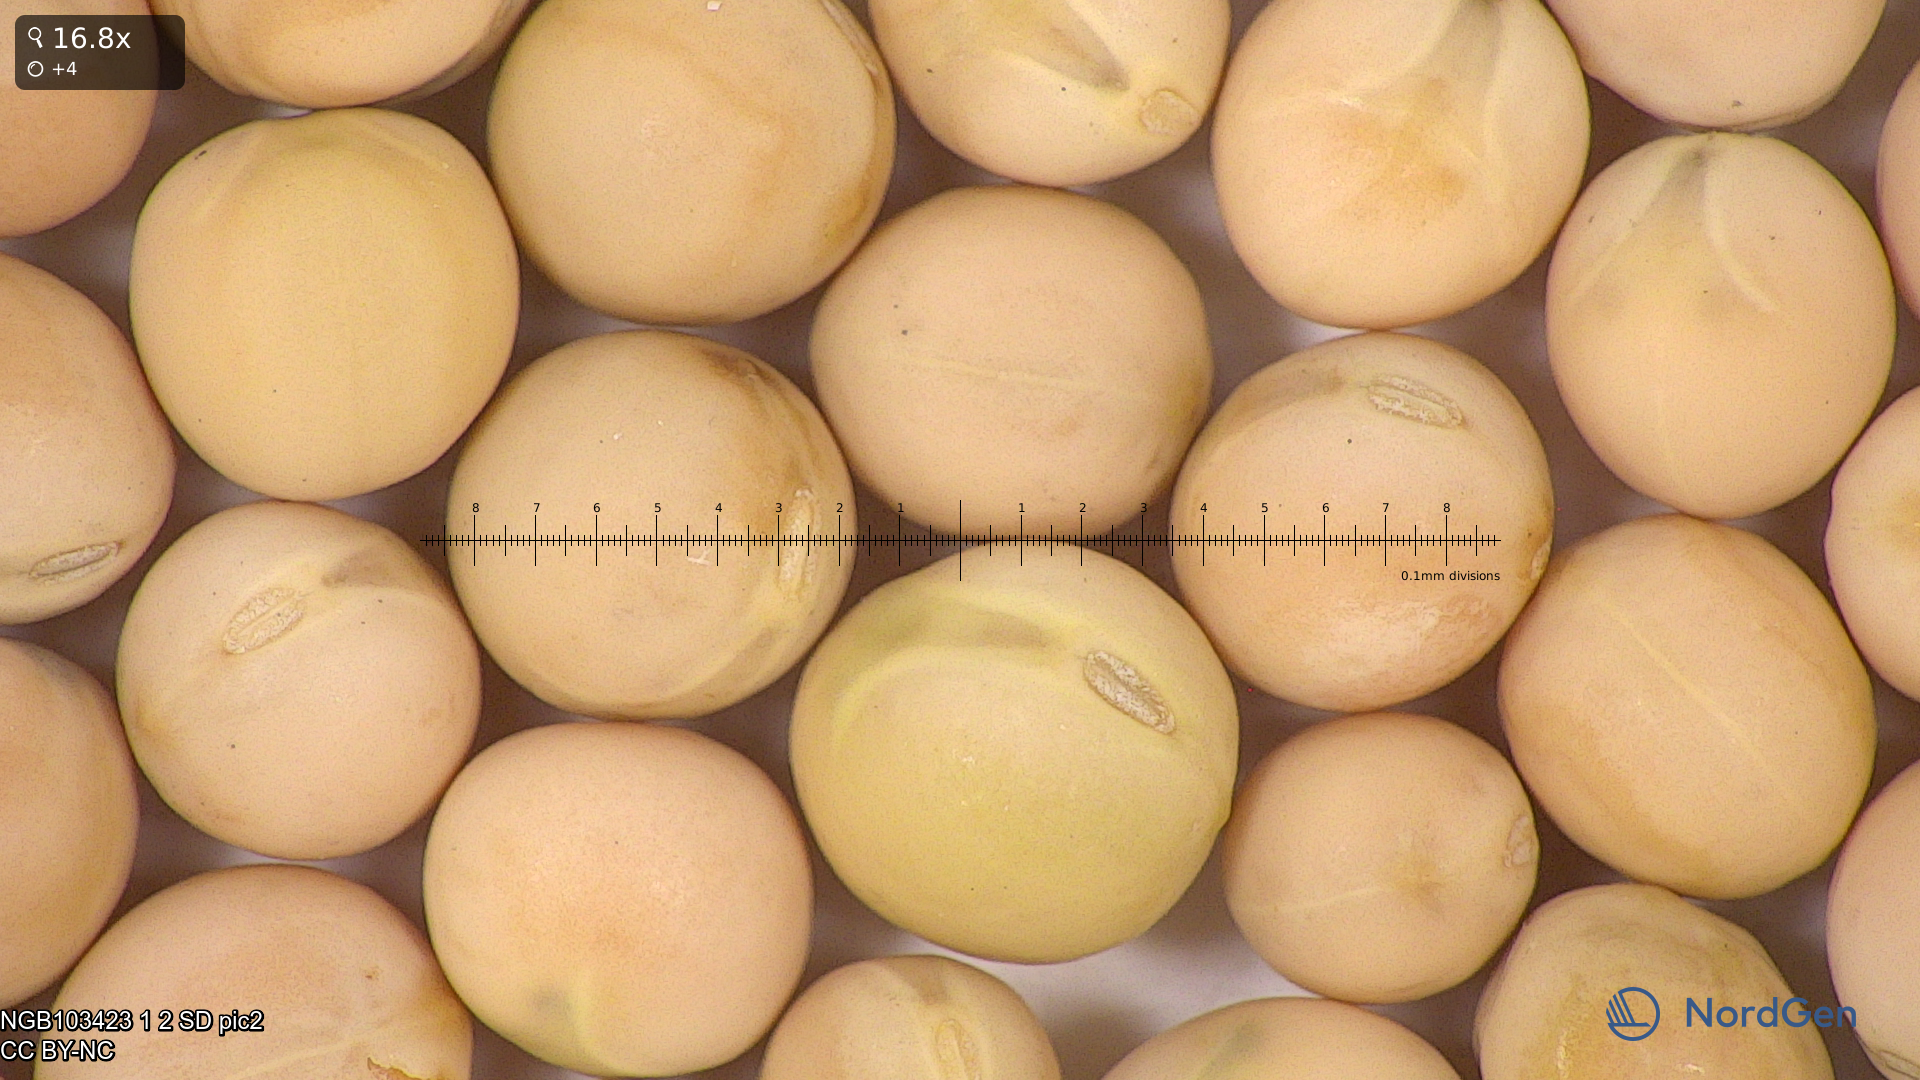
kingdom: Plantae
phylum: Tracheophyta
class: Magnoliopsida
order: Fabales
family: Fabaceae
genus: Lathyrus
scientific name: Lathyrus oleraceus
